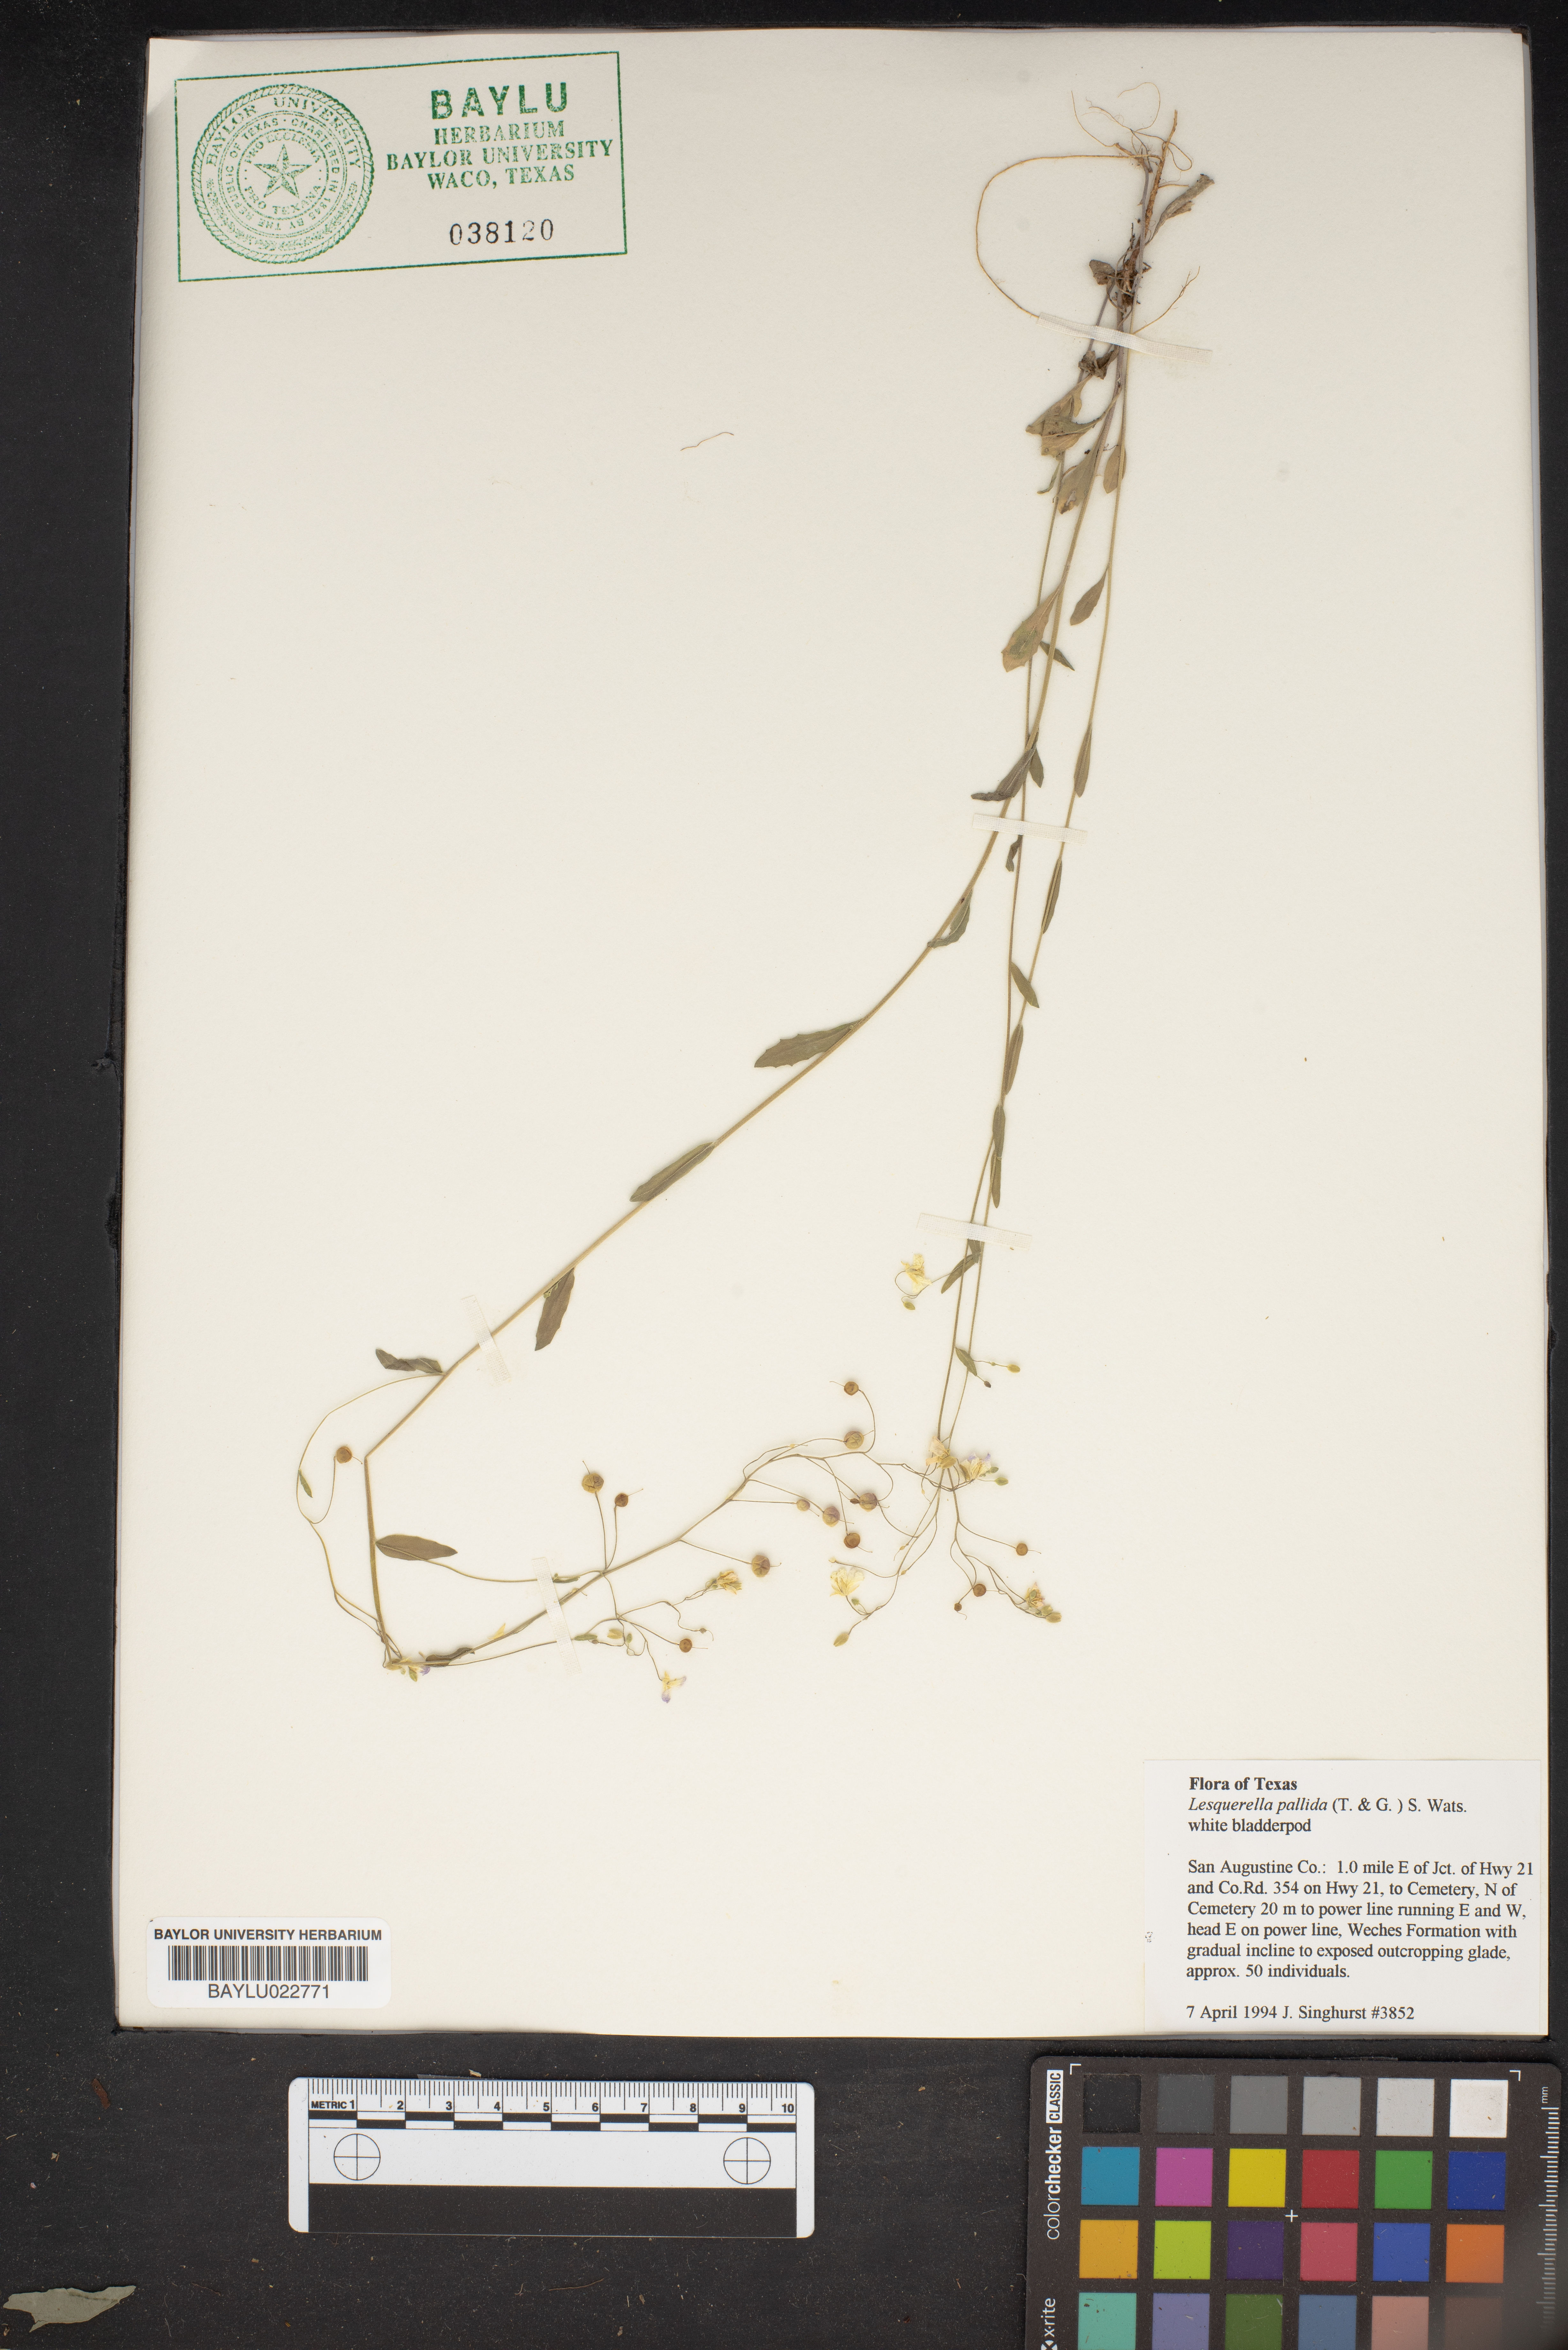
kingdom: Plantae
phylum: Tracheophyta
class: Magnoliopsida
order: Brassicales
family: Brassicaceae
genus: Physaria
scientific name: Physaria pallida
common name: White bladderpod
